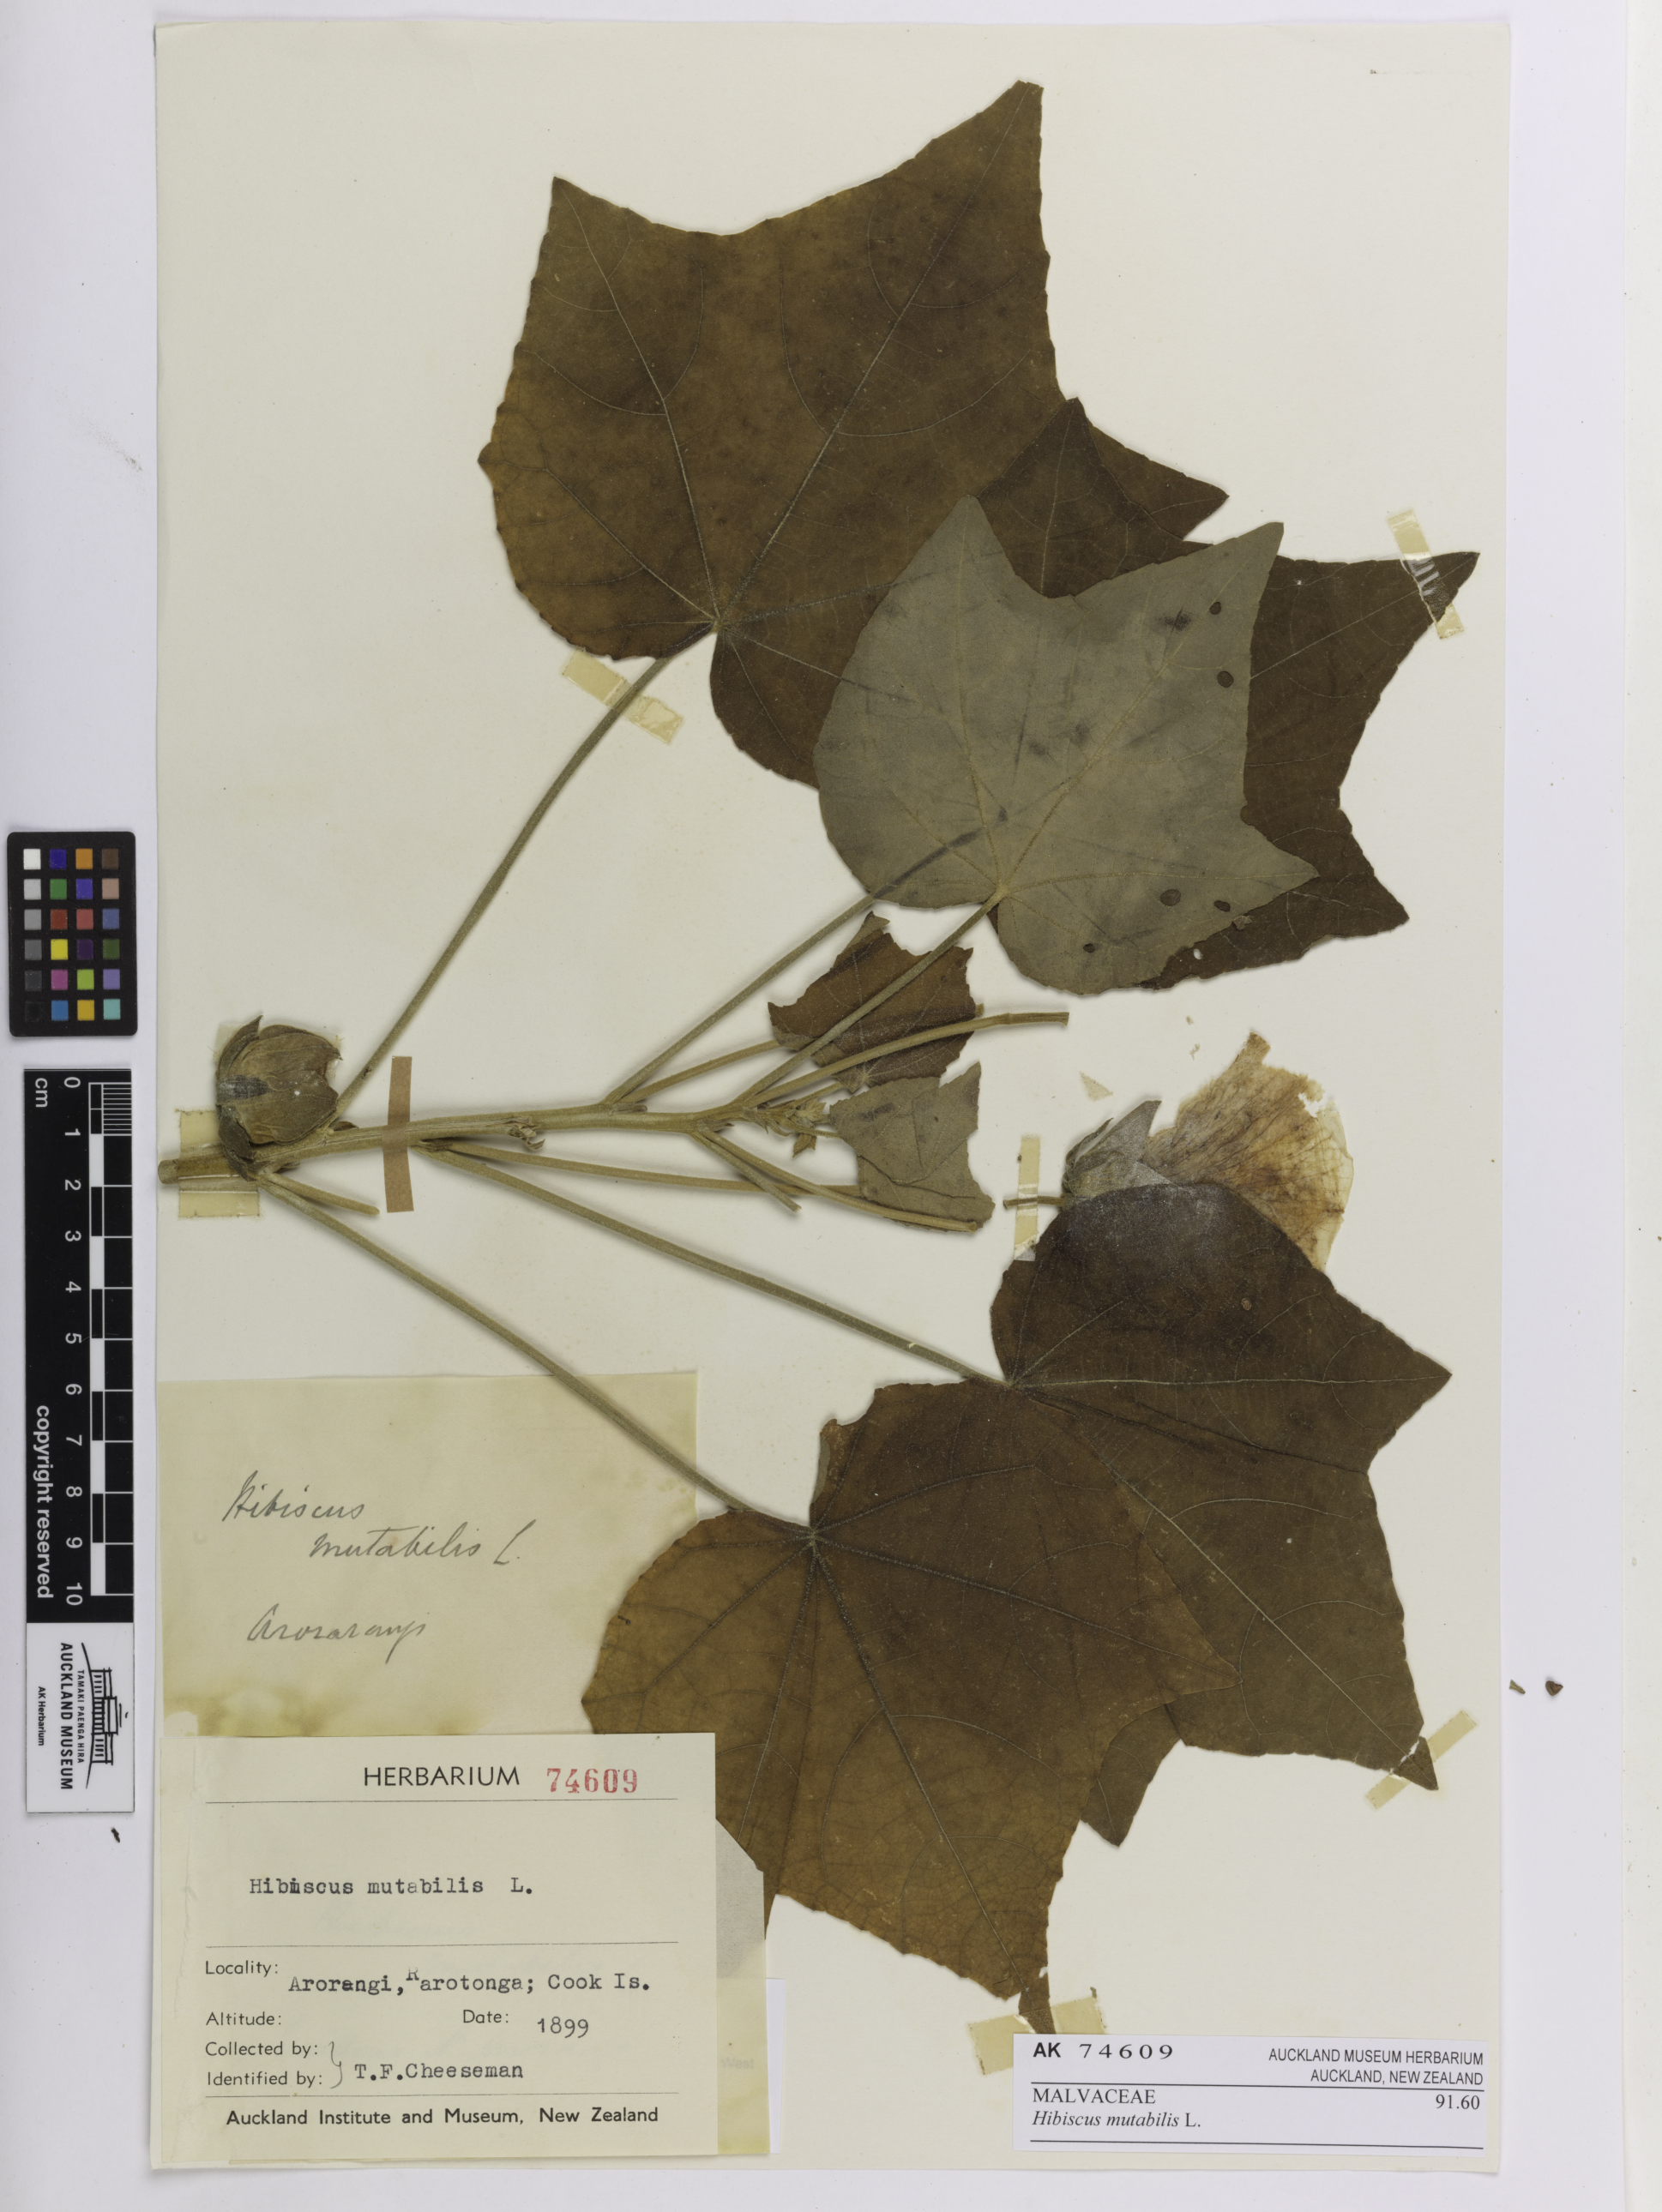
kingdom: Plantae
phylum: Tracheophyta
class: Magnoliopsida
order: Malvales
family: Malvaceae
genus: Hibiscus
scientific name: Hibiscus mutabilis
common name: Dixie rosemallow
